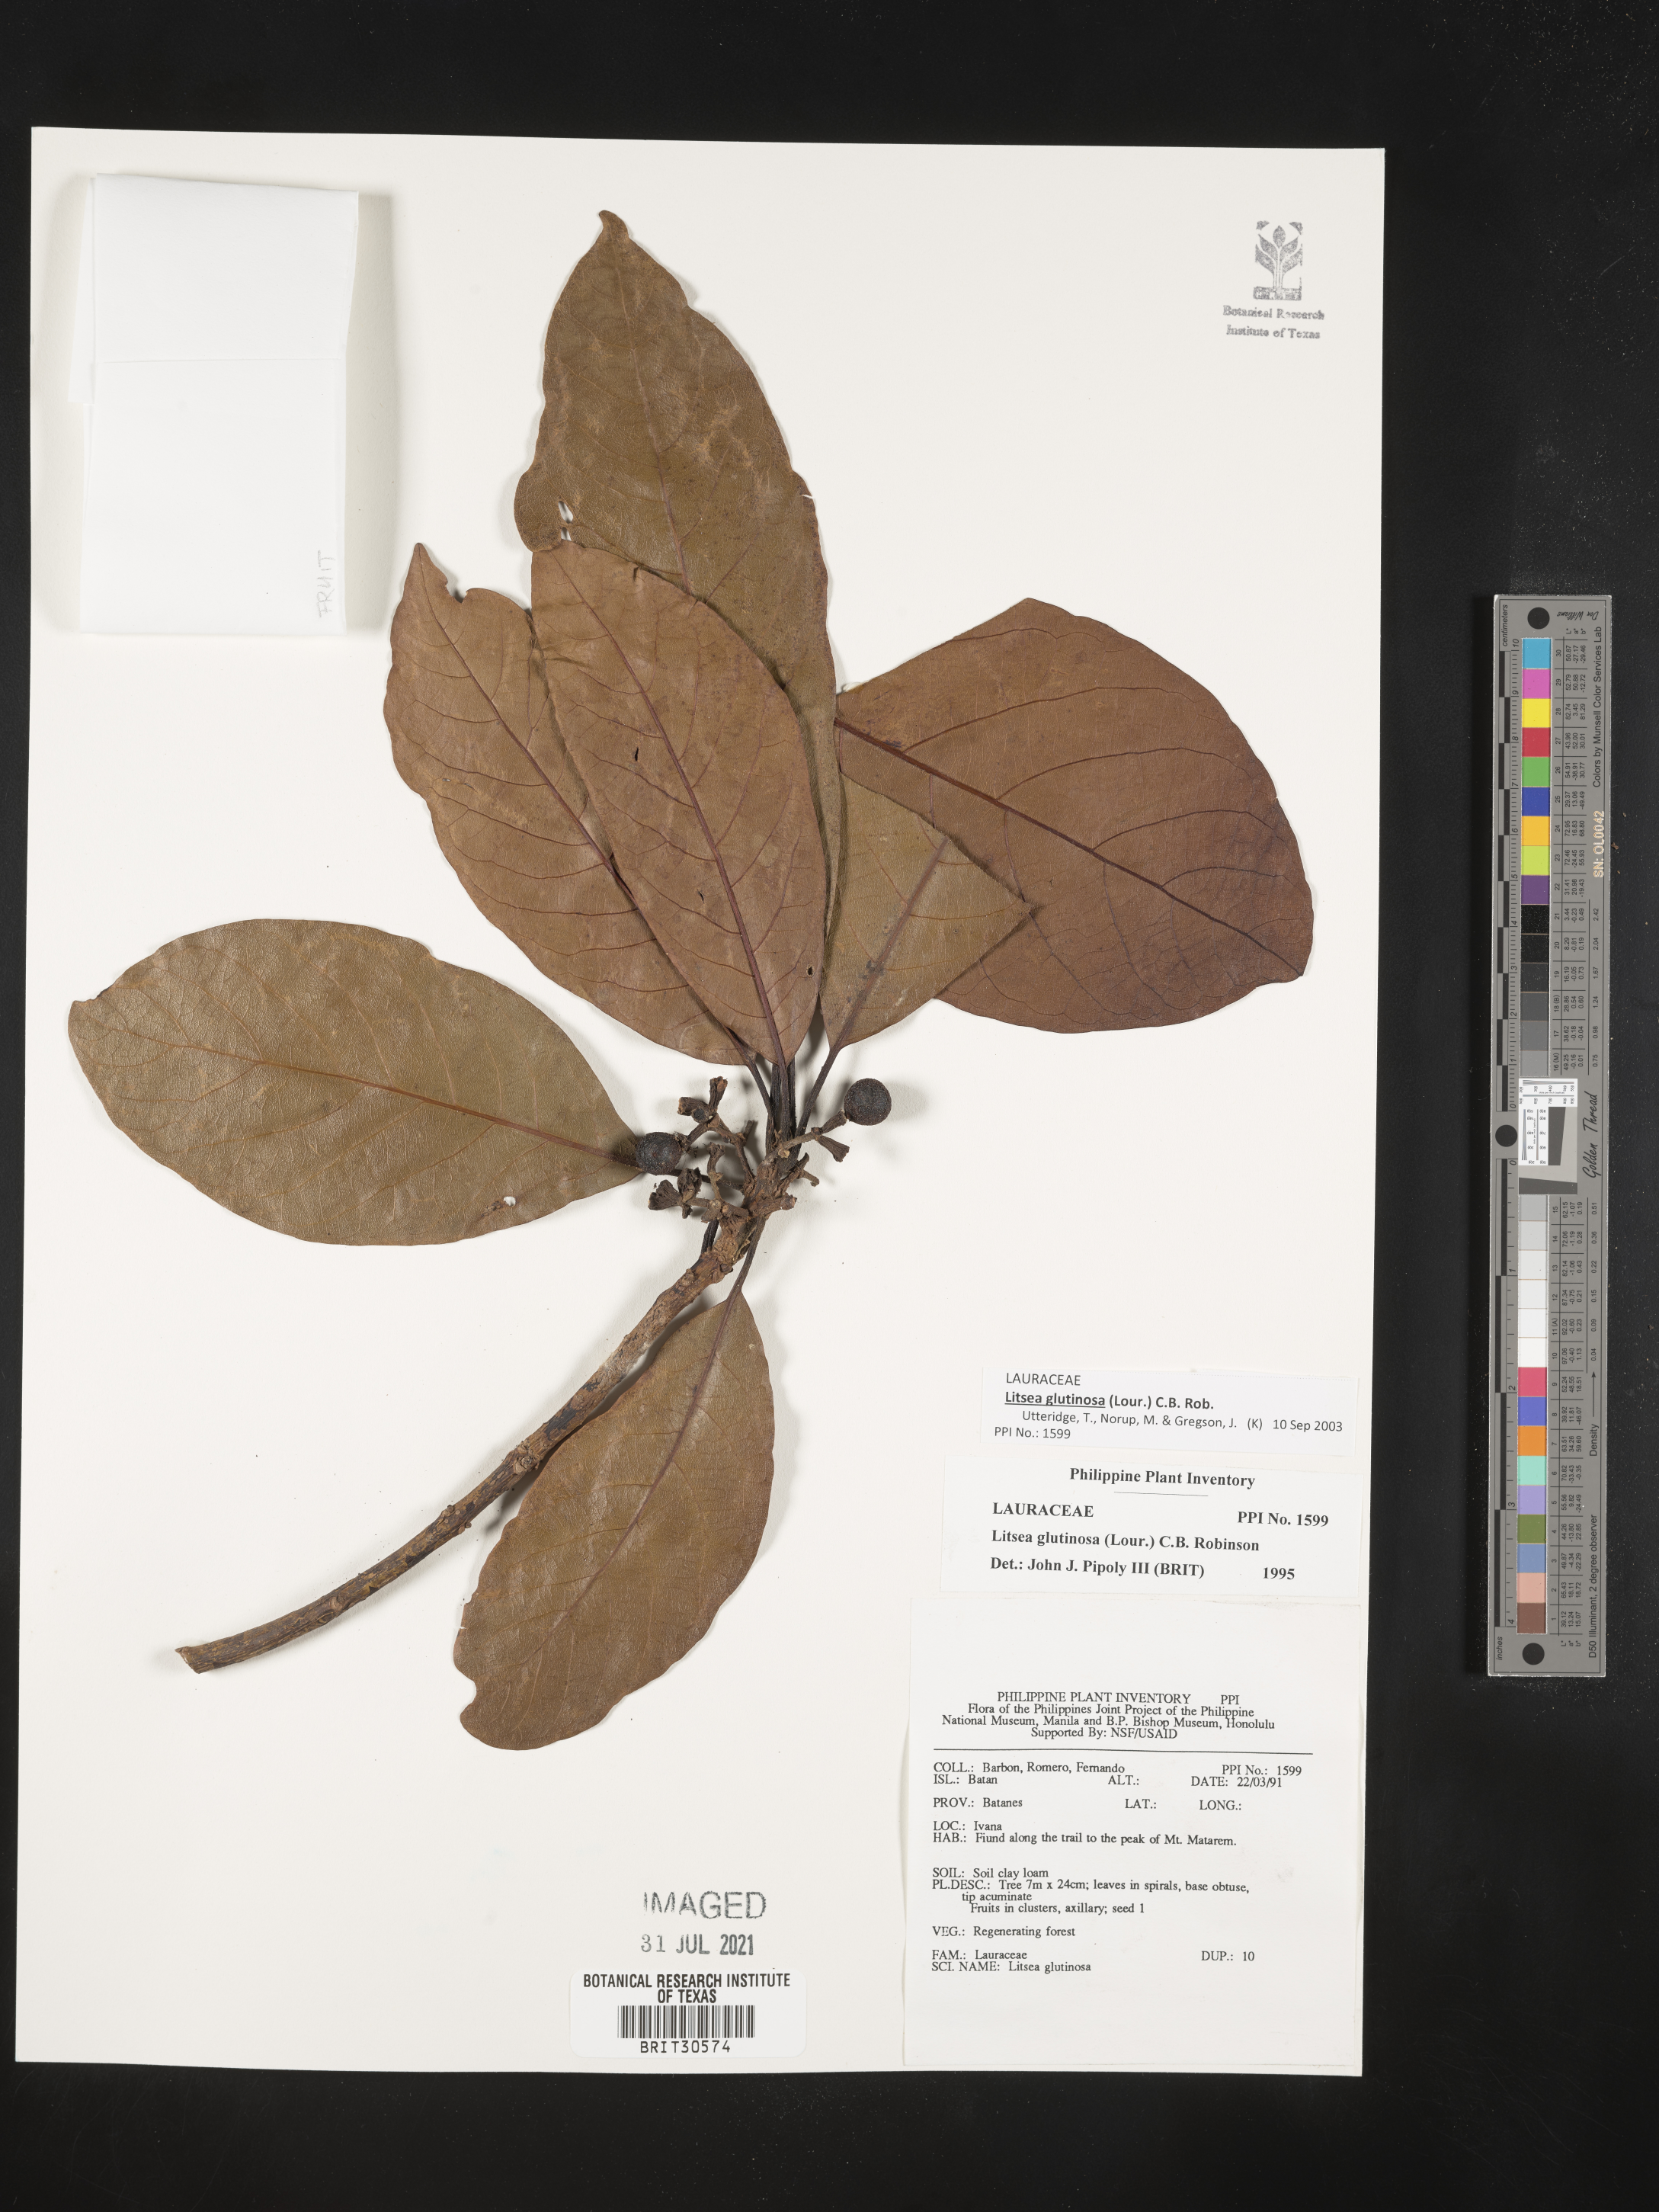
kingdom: Plantae
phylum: Tracheophyta
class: Magnoliopsida
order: Laurales
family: Lauraceae
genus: Litsea
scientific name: Litsea glutinosa
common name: Indian-laurel
